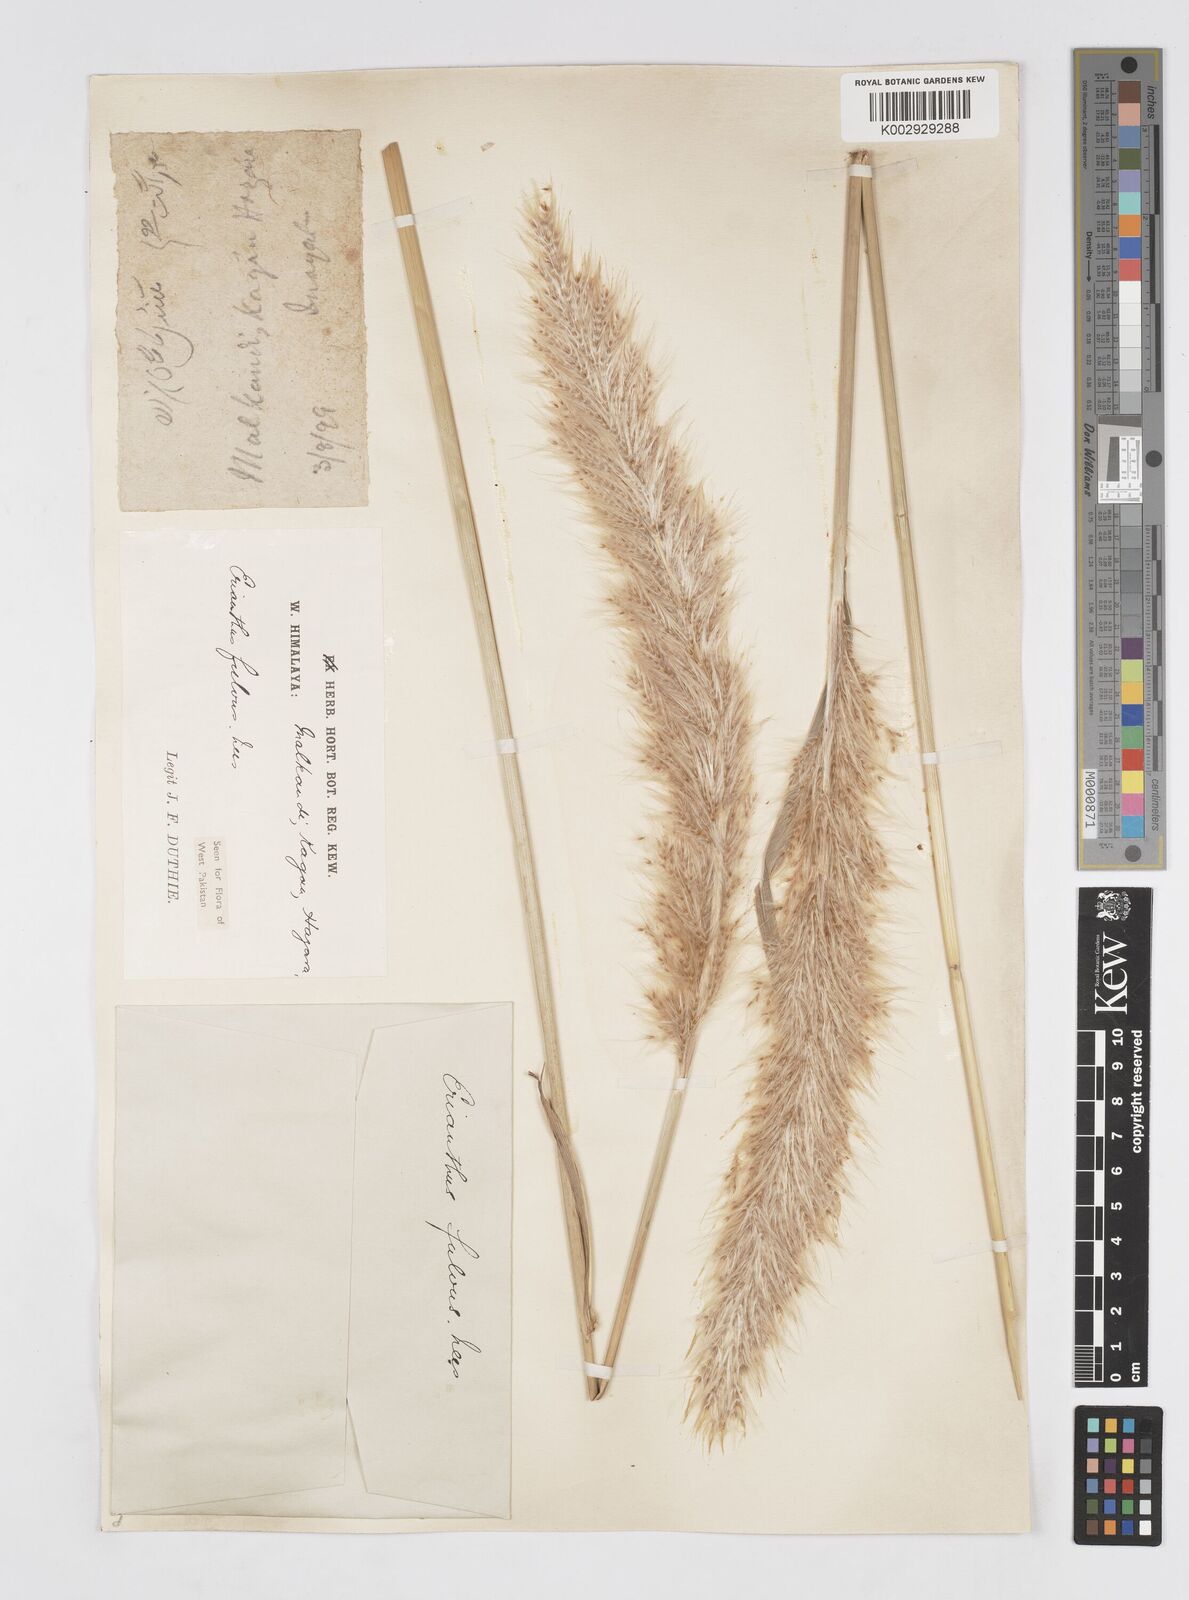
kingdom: Plantae
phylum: Tracheophyta
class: Liliopsida
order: Poales
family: Poaceae
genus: Tripidium
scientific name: Tripidium rufipilum
